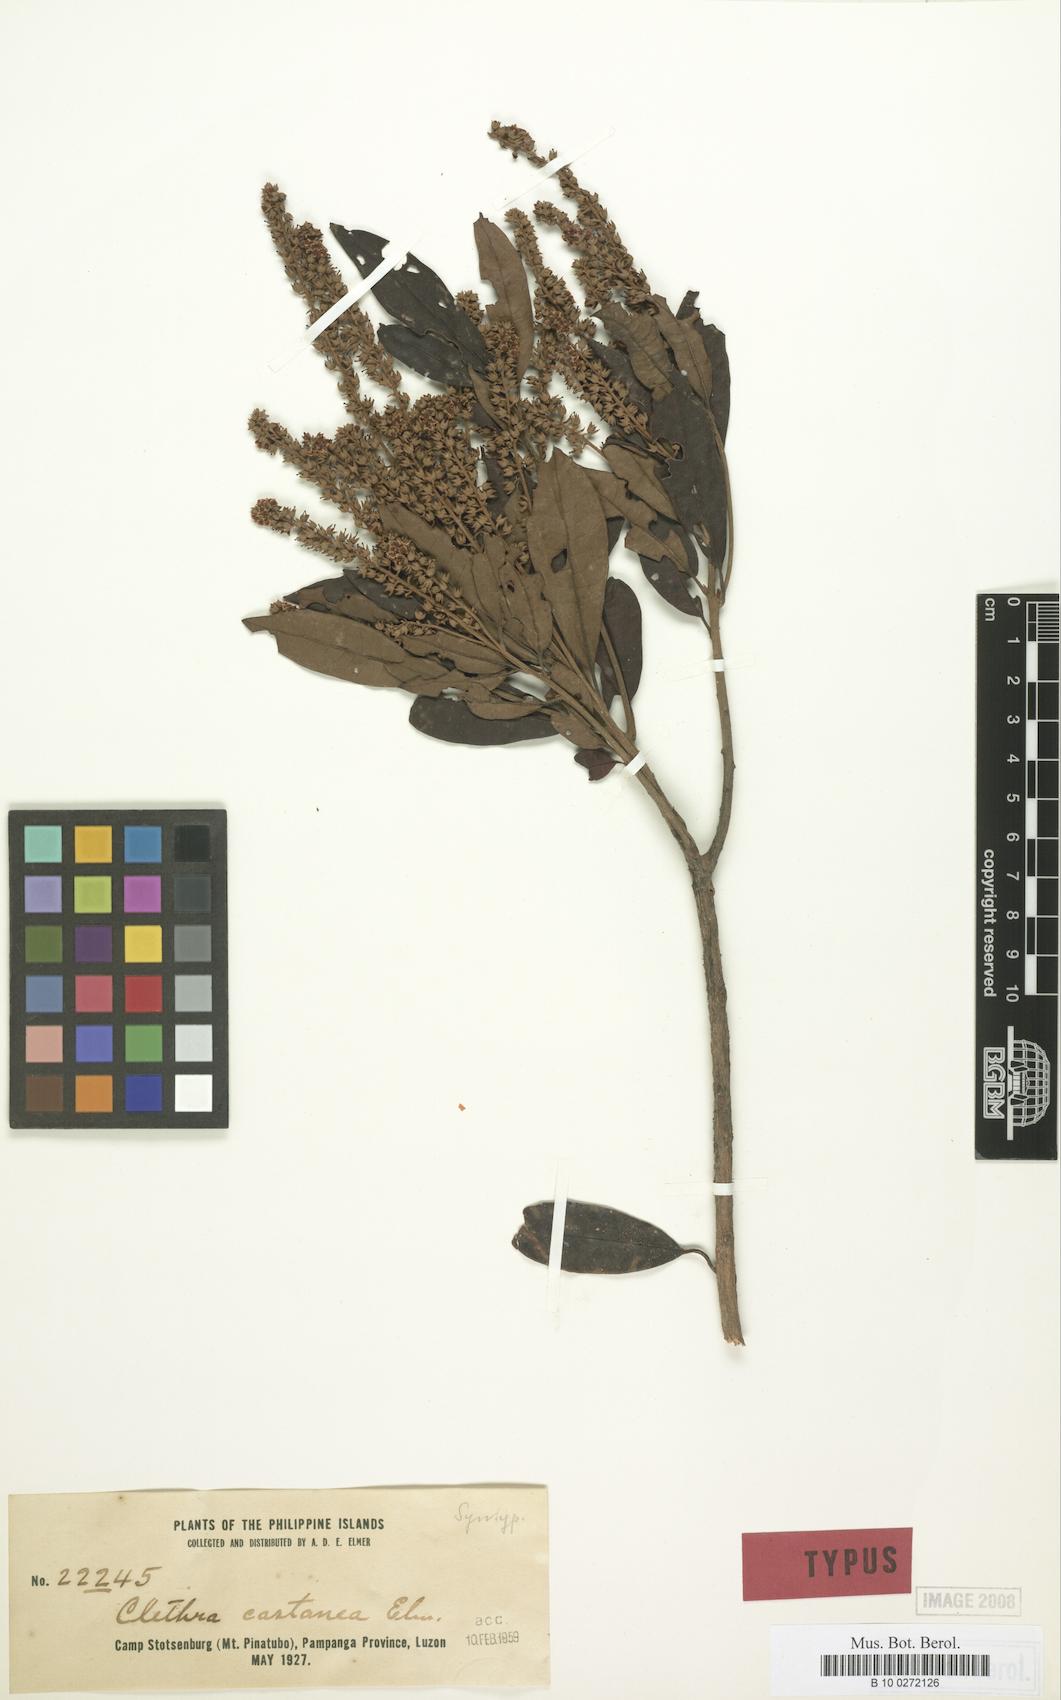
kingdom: Plantae
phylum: Tracheophyta
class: Magnoliopsida
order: Ericales
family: Clethraceae
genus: Clethra
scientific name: Clethra canescens
